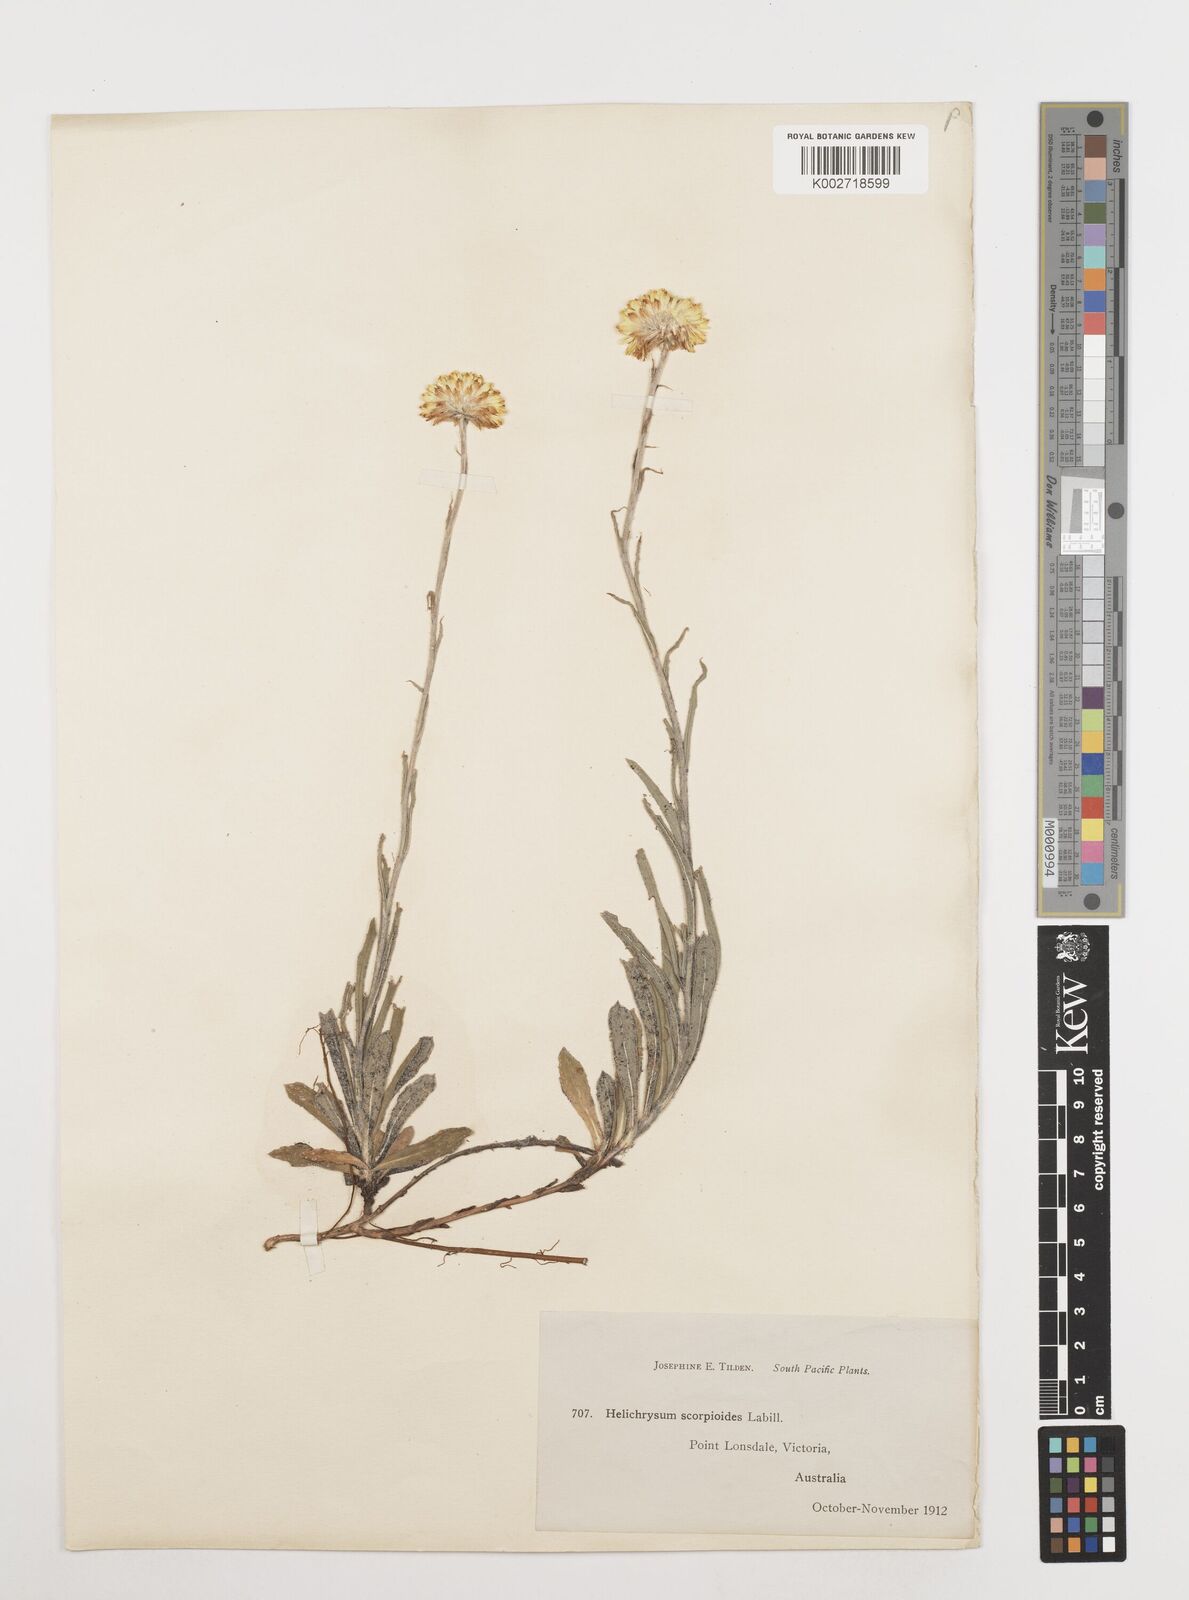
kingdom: Plantae
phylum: Tracheophyta
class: Magnoliopsida
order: Asterales
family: Asteraceae
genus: Coronidium
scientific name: Coronidium scorpioides
